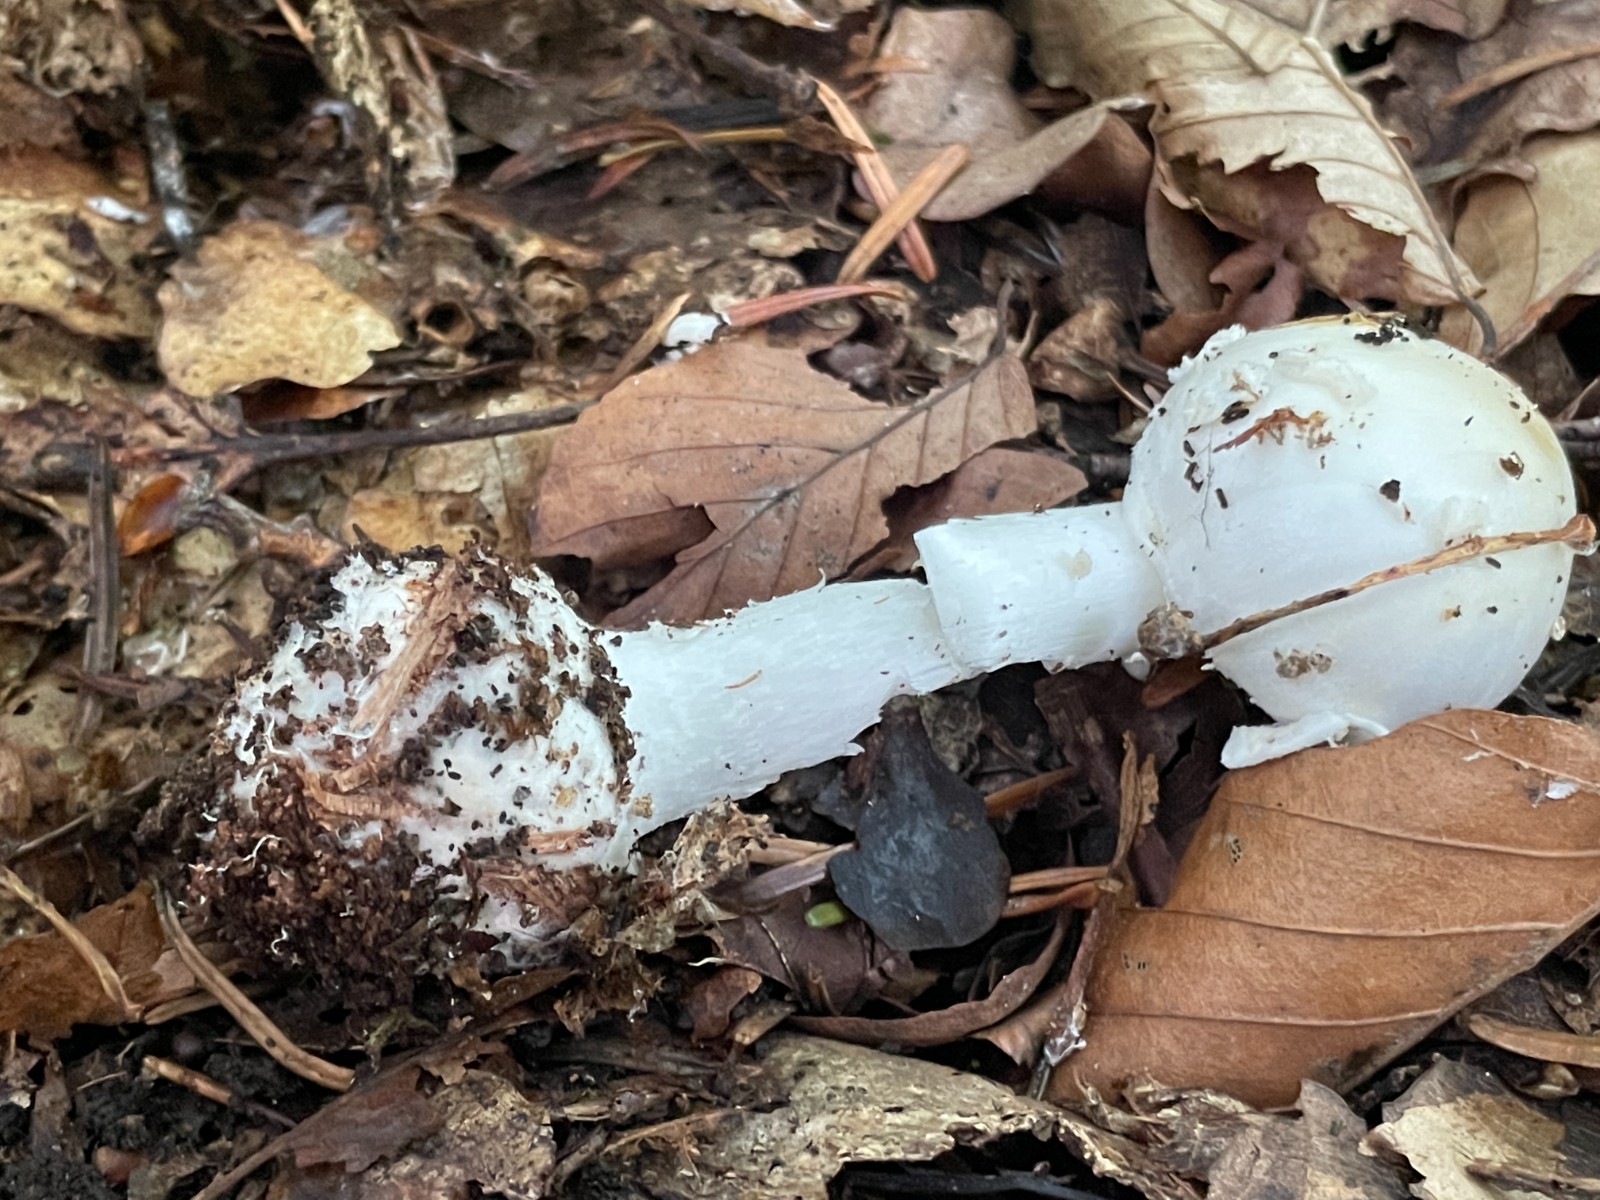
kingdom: Fungi
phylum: Basidiomycota
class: Agaricomycetes
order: Agaricales
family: Amanitaceae
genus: Amanita
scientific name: Amanita citrina
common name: False death-cap
